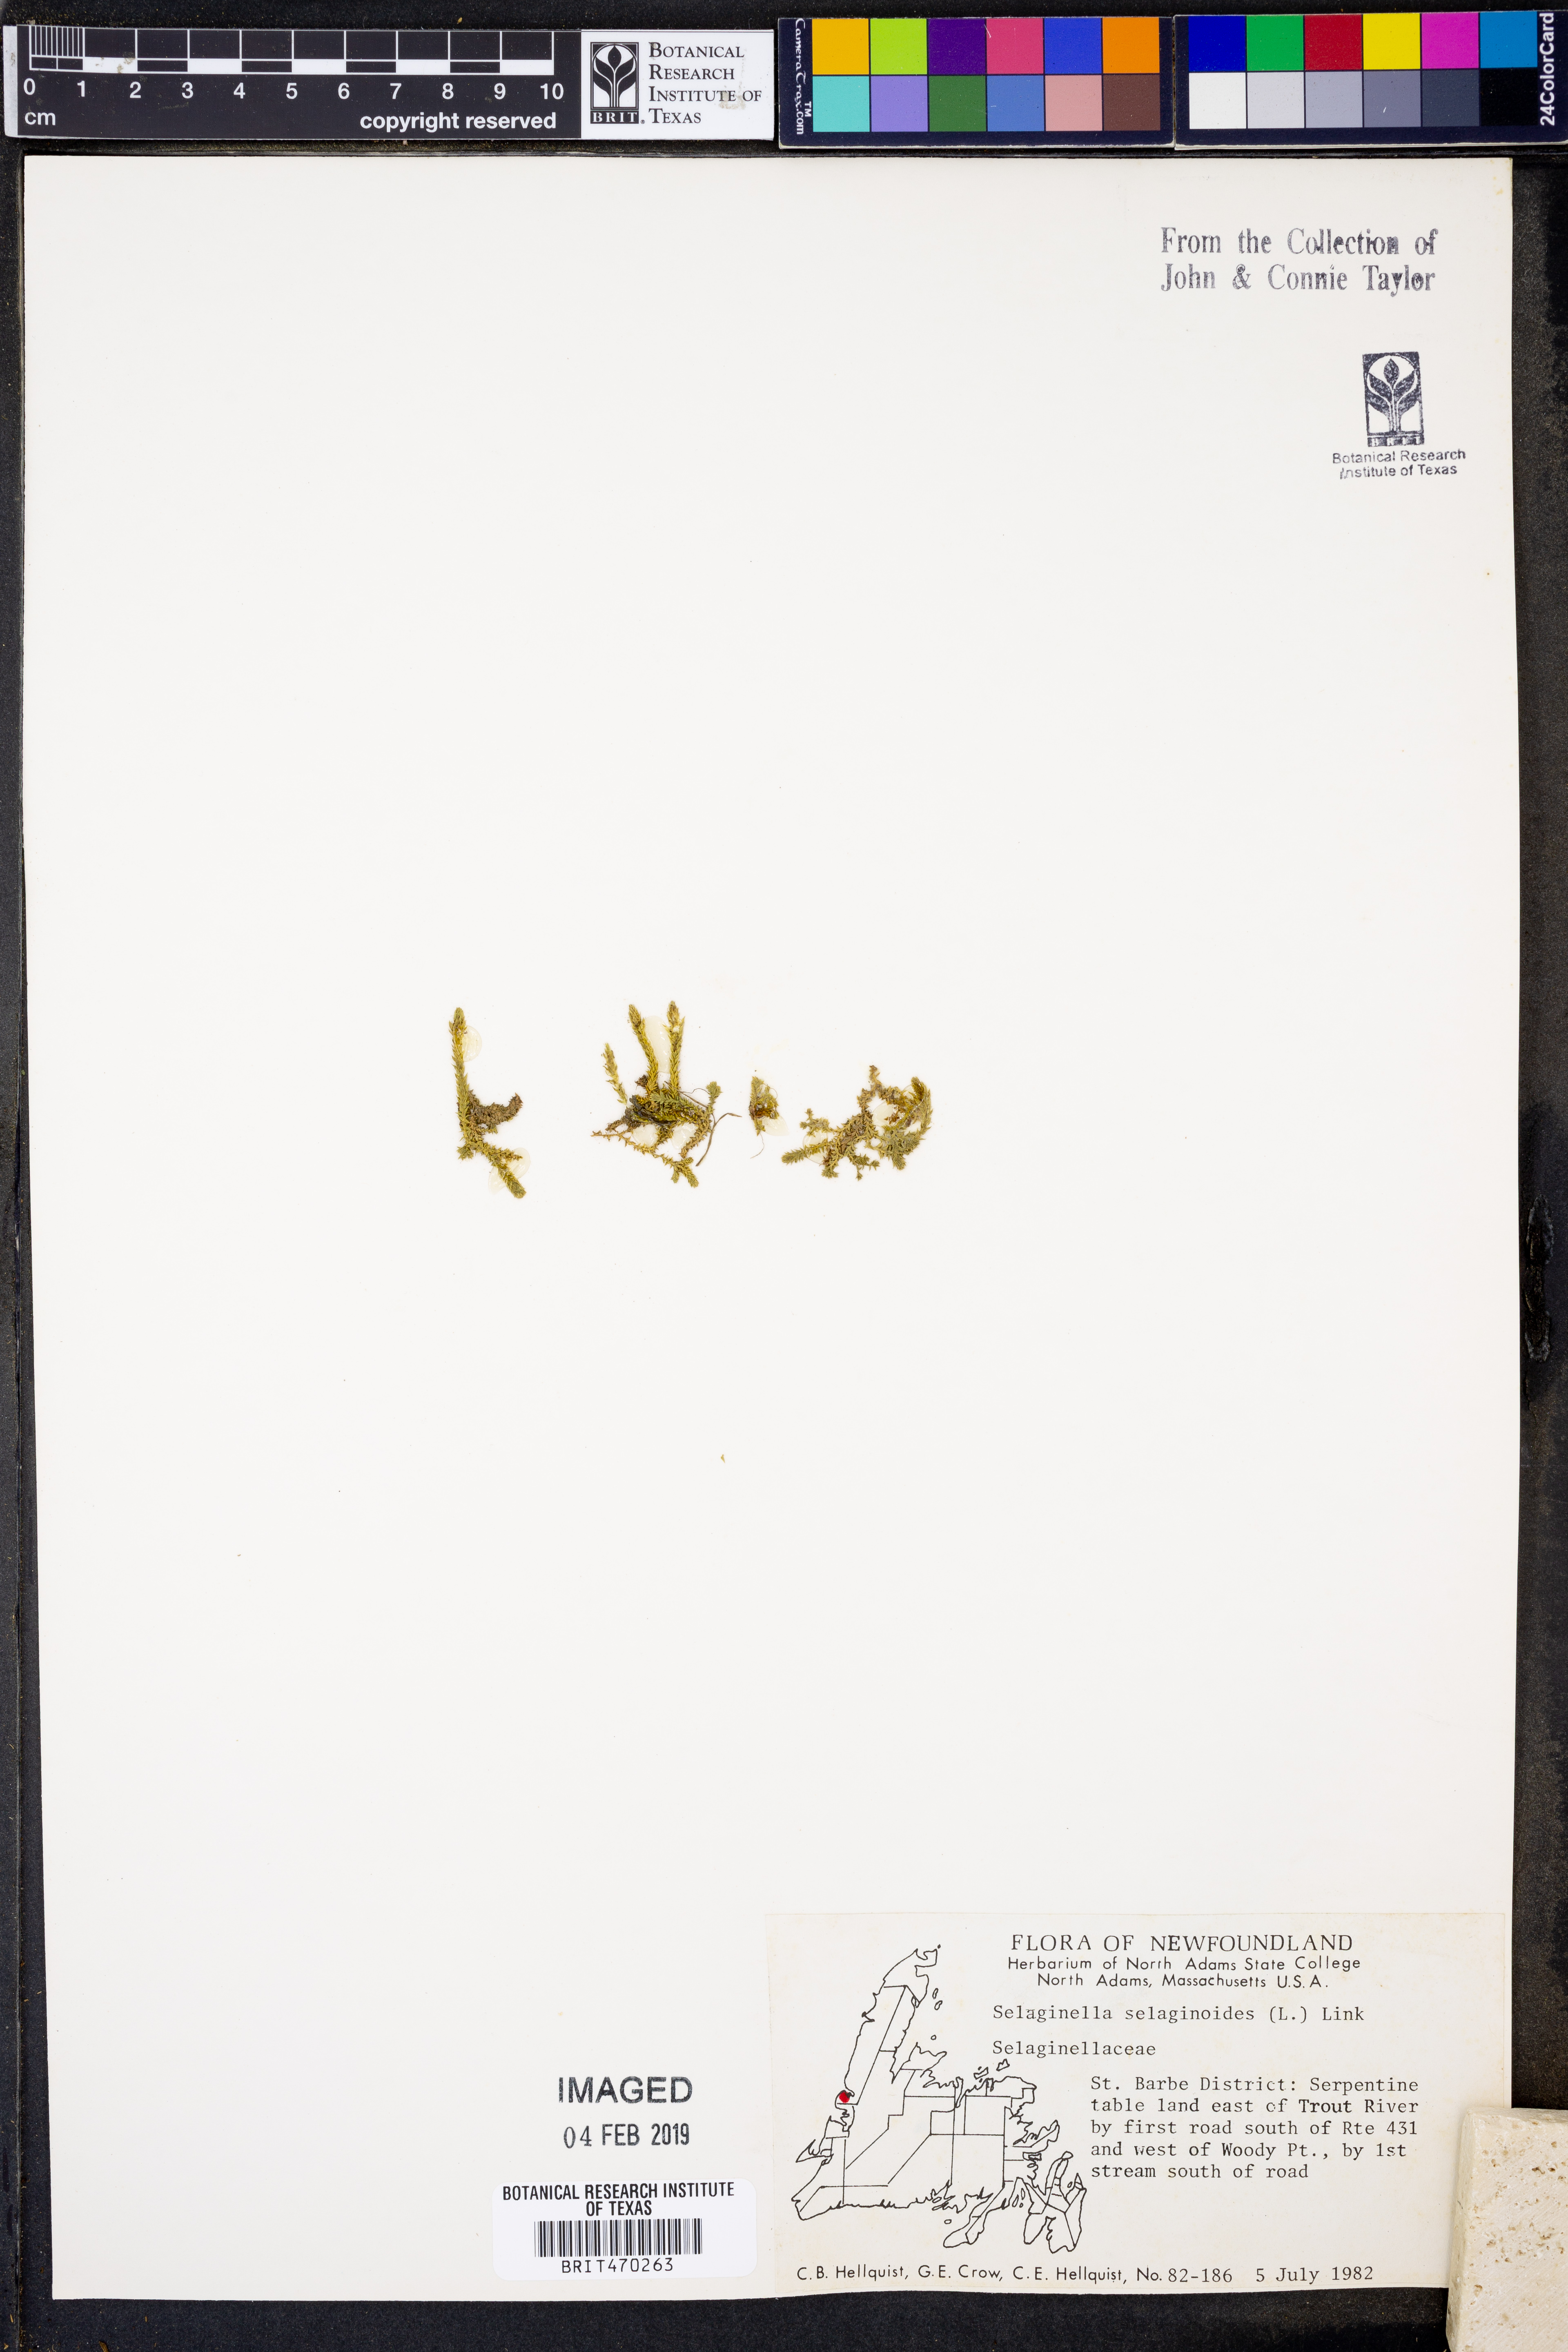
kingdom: Plantae
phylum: Tracheophyta
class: Lycopodiopsida
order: Selaginellales
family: Selaginellaceae
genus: Selaginella
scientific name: Selaginella selaginoides
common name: Prickly mountain-moss
